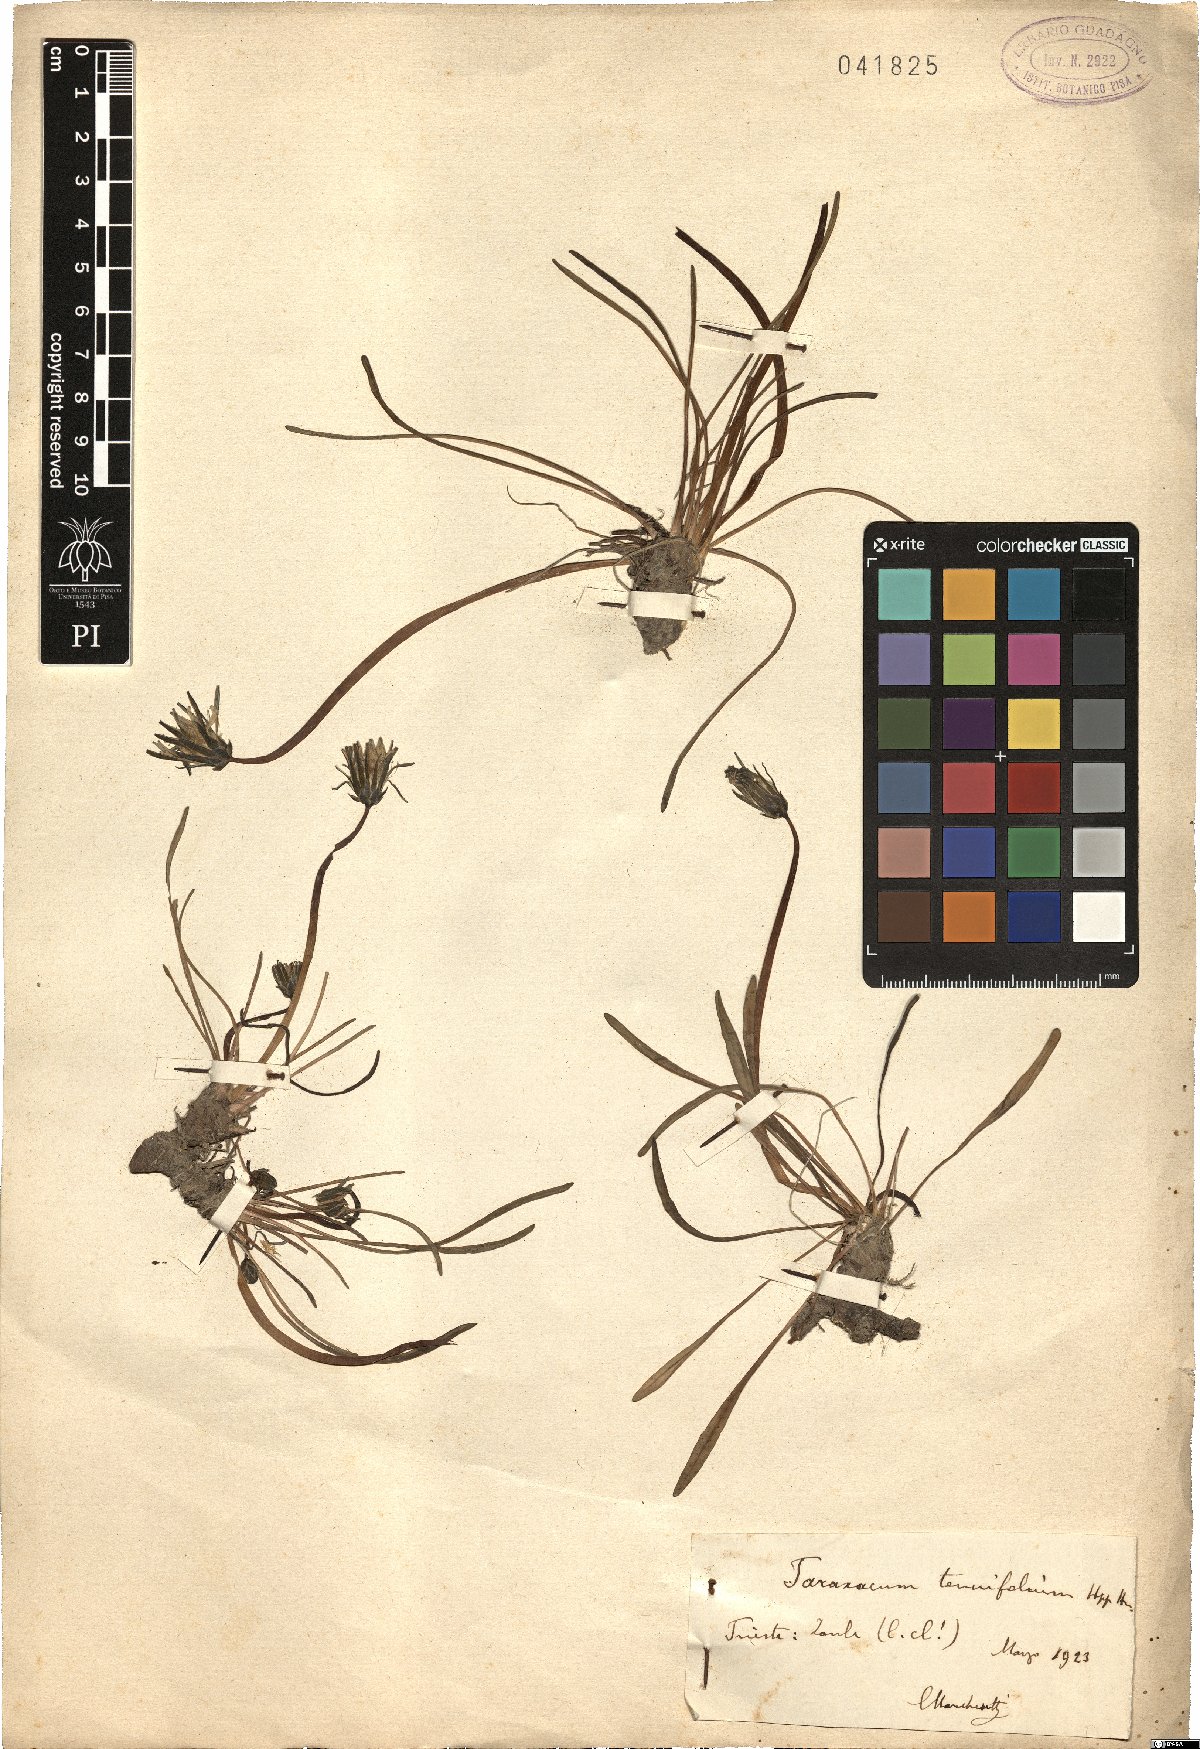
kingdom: Plantae
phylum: Tracheophyta
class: Magnoliopsida
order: Asterales
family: Asteraceae
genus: Taraxacum
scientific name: Taraxacum tenuifolium
